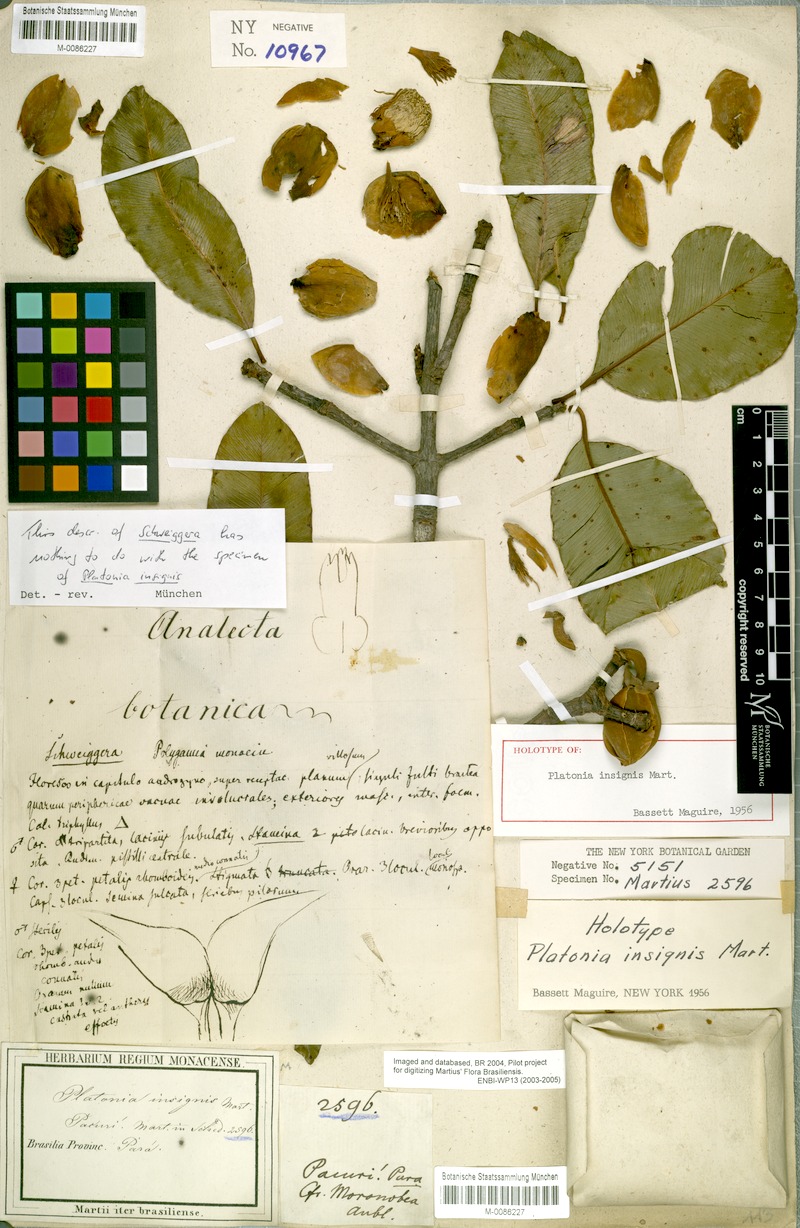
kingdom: Plantae
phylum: Tracheophyta
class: Magnoliopsida
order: Malpighiales
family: Clusiaceae
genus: Platonia
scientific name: Platonia insignis
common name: Bacury
